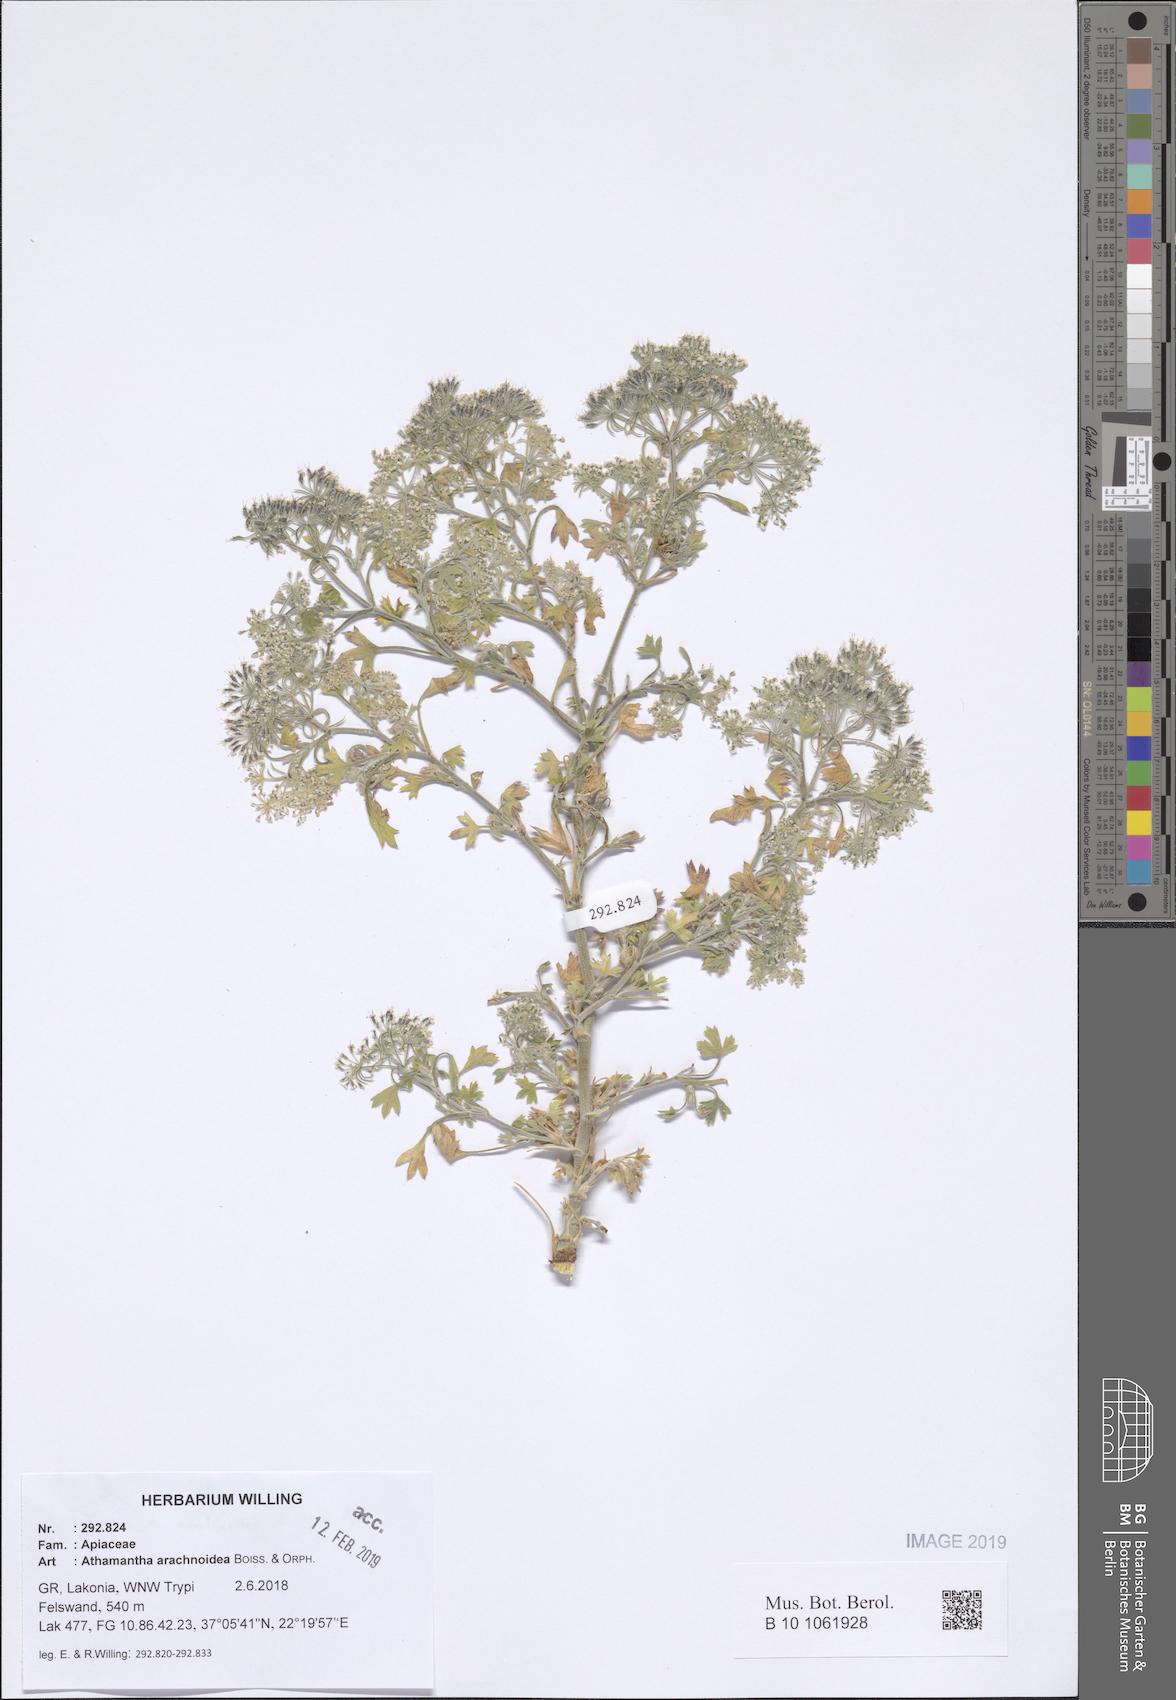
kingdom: Plantae
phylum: Tracheophyta
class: Magnoliopsida
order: Apiales
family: Apiaceae
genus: Bubon
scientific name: Bubon arachnoideum
